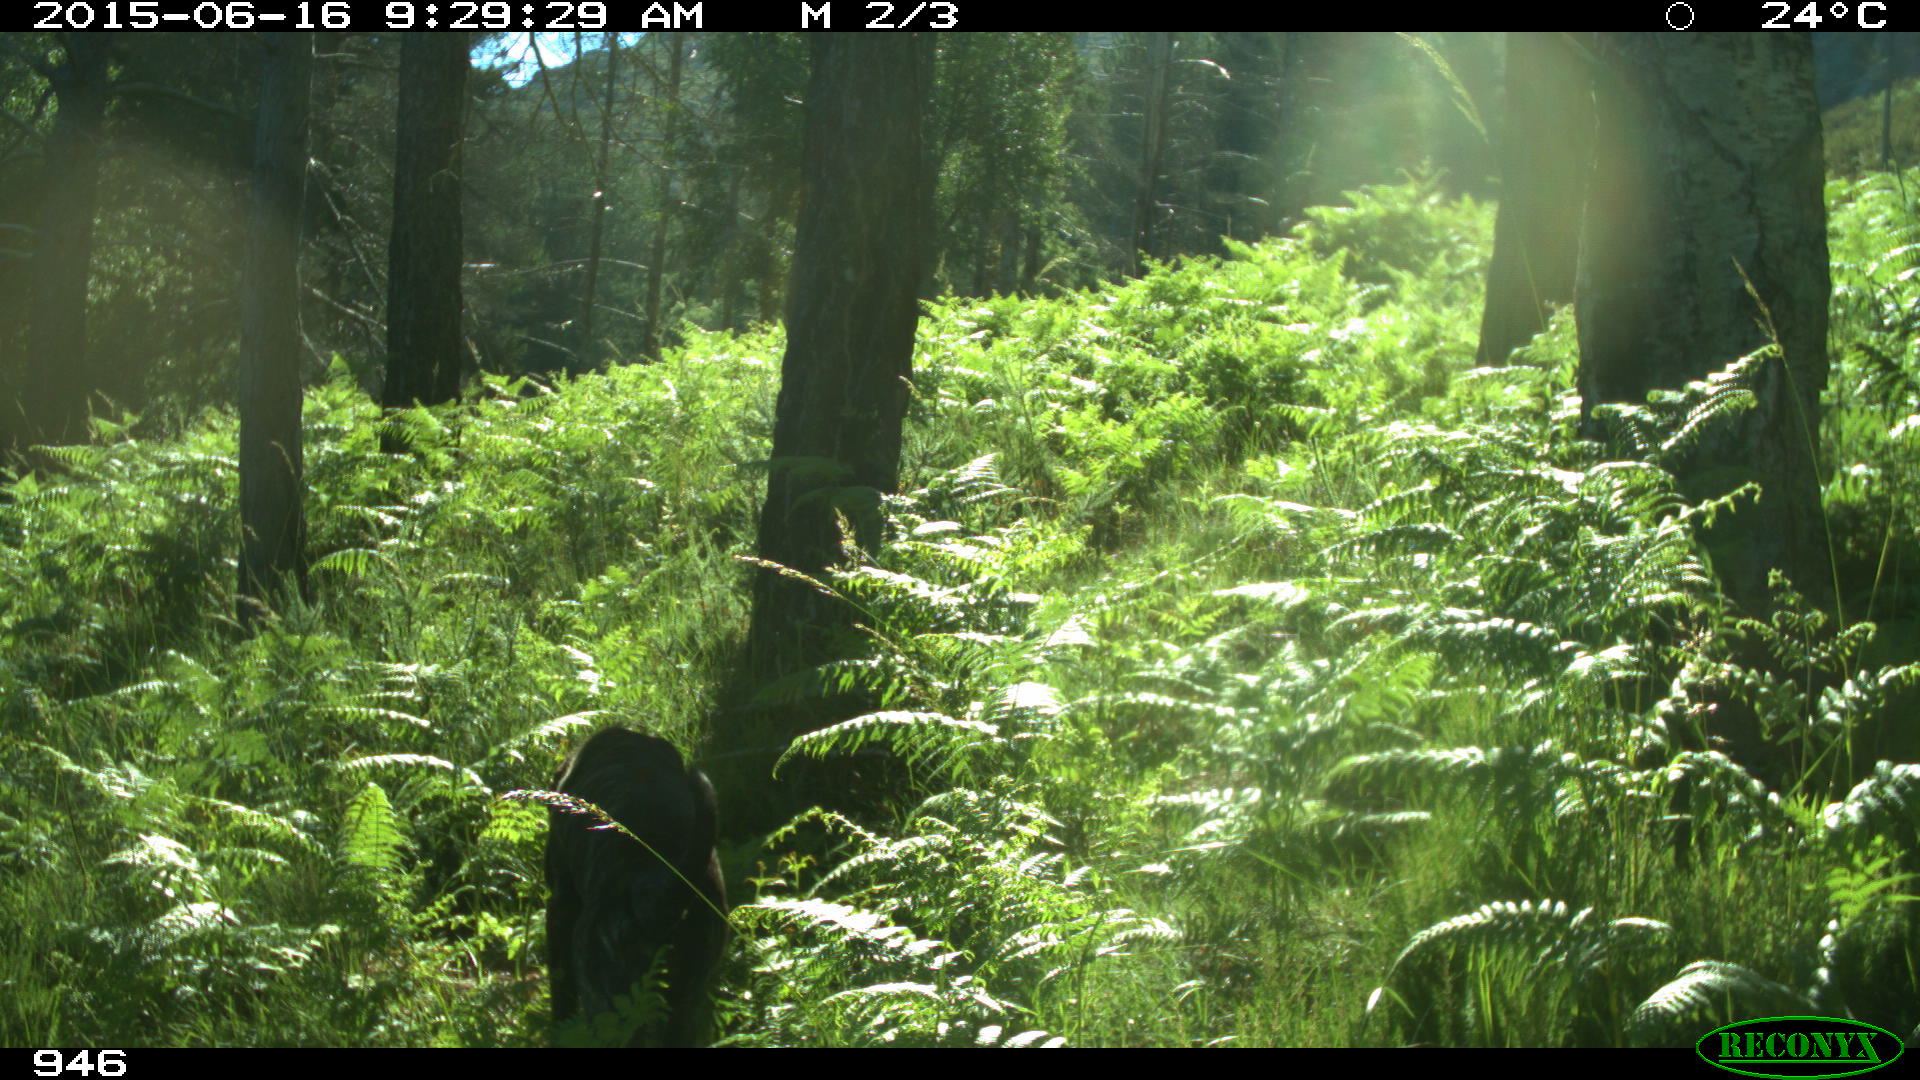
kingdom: Animalia
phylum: Chordata
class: Mammalia
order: Carnivora
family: Canidae
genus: Canis
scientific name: Canis lupus
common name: Gray wolf
